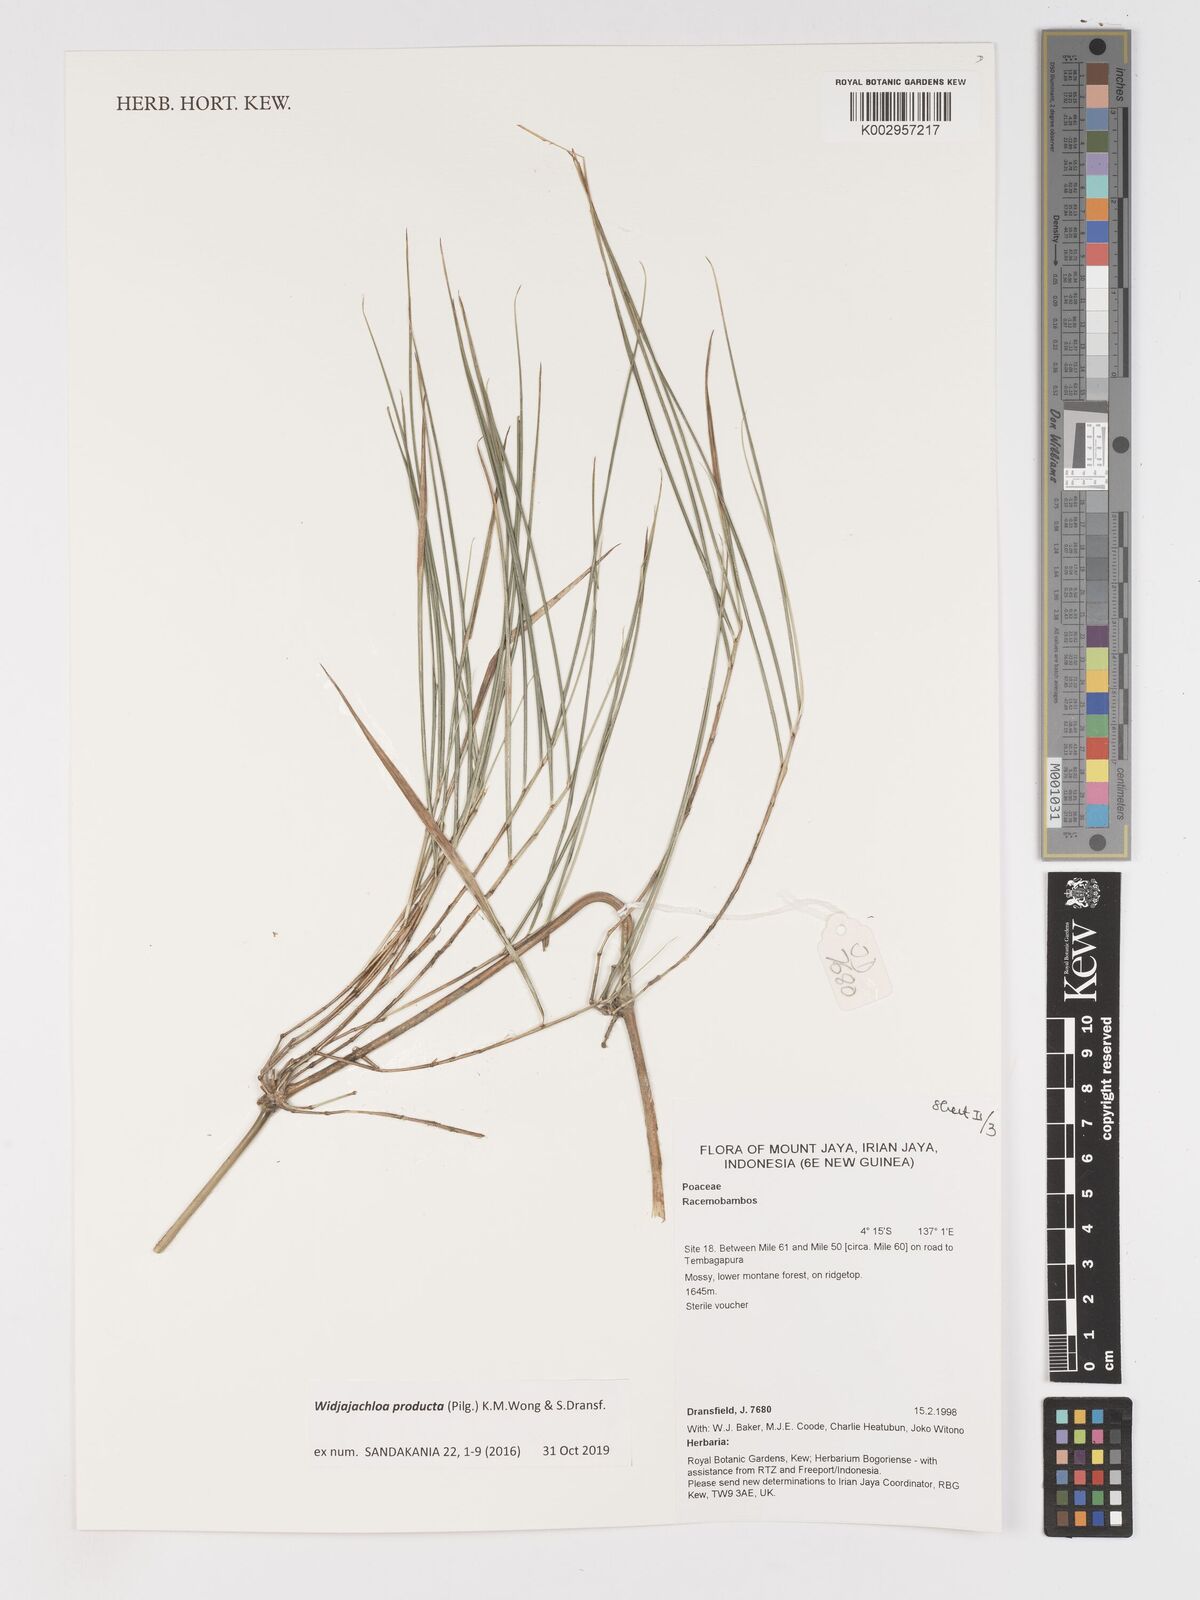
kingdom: Plantae
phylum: Tracheophyta
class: Liliopsida
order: Poales
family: Poaceae
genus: Widjajachloa
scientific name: Widjajachloa
